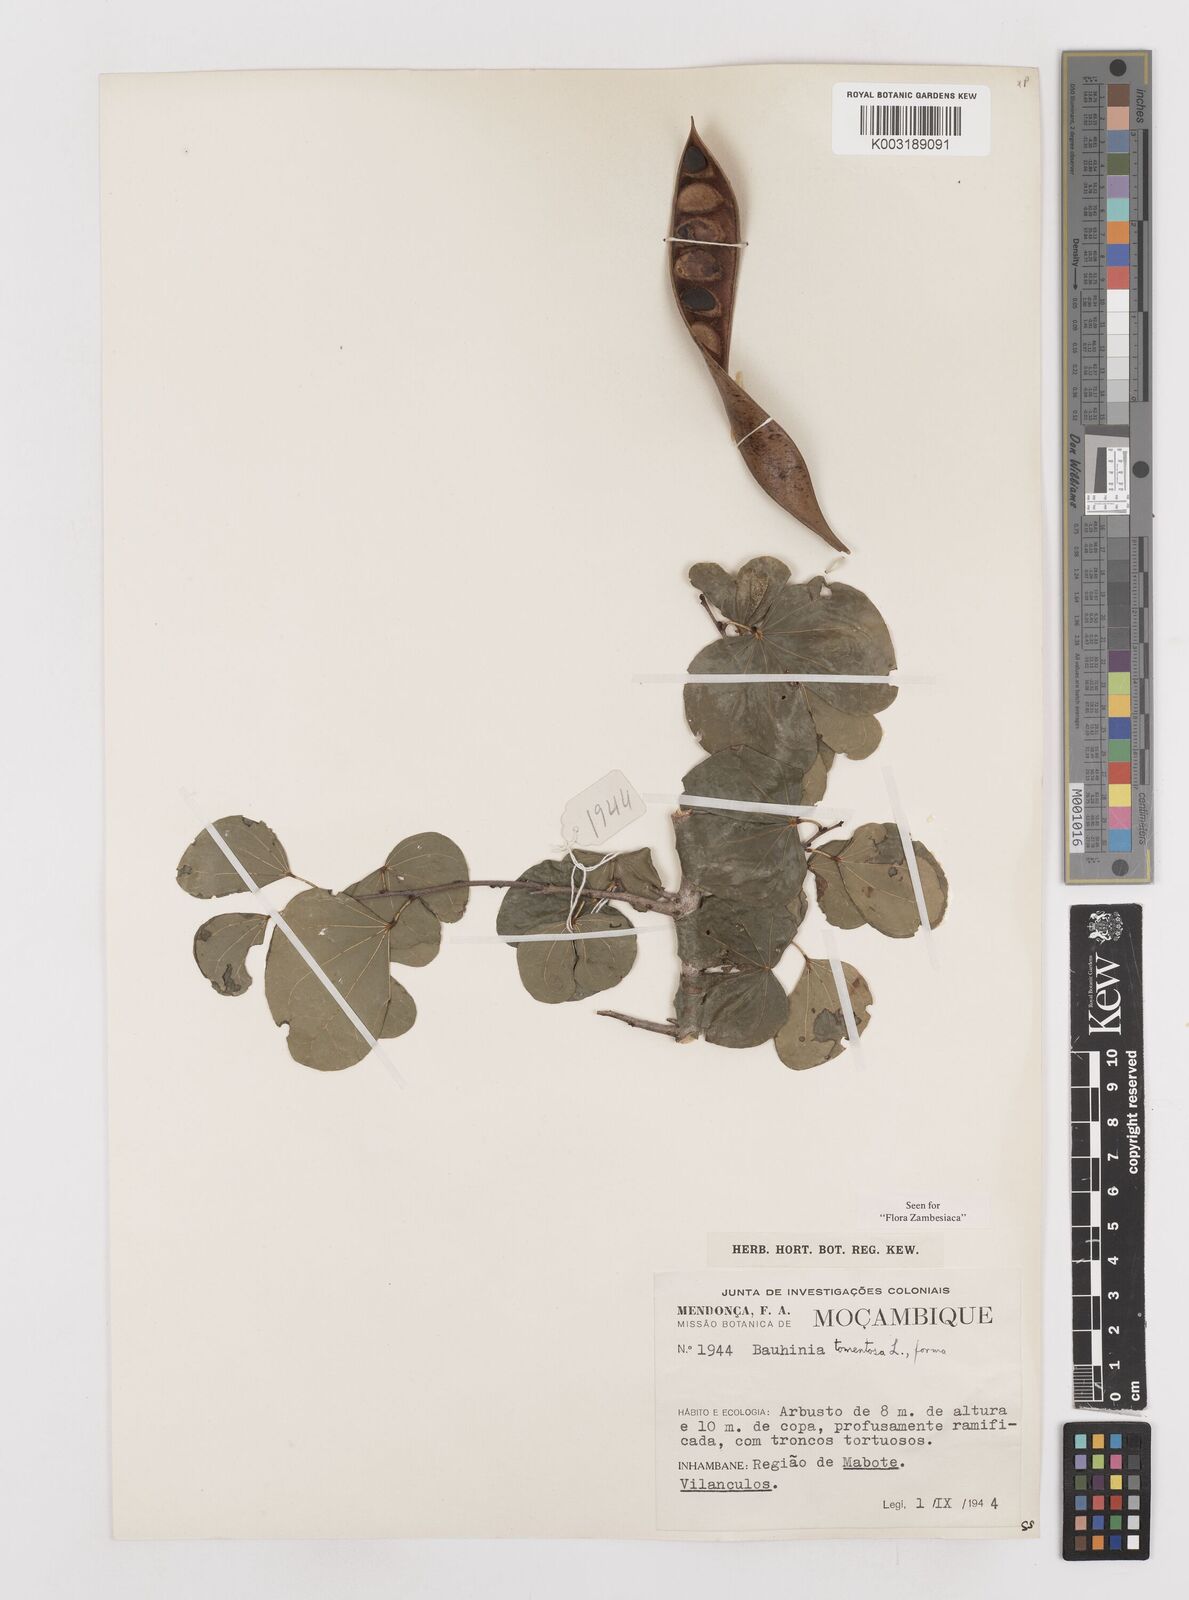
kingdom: Plantae
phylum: Tracheophyta
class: Magnoliopsida
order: Fabales
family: Fabaceae
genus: Bauhinia
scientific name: Bauhinia tomentosa
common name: Bell bauhinia
